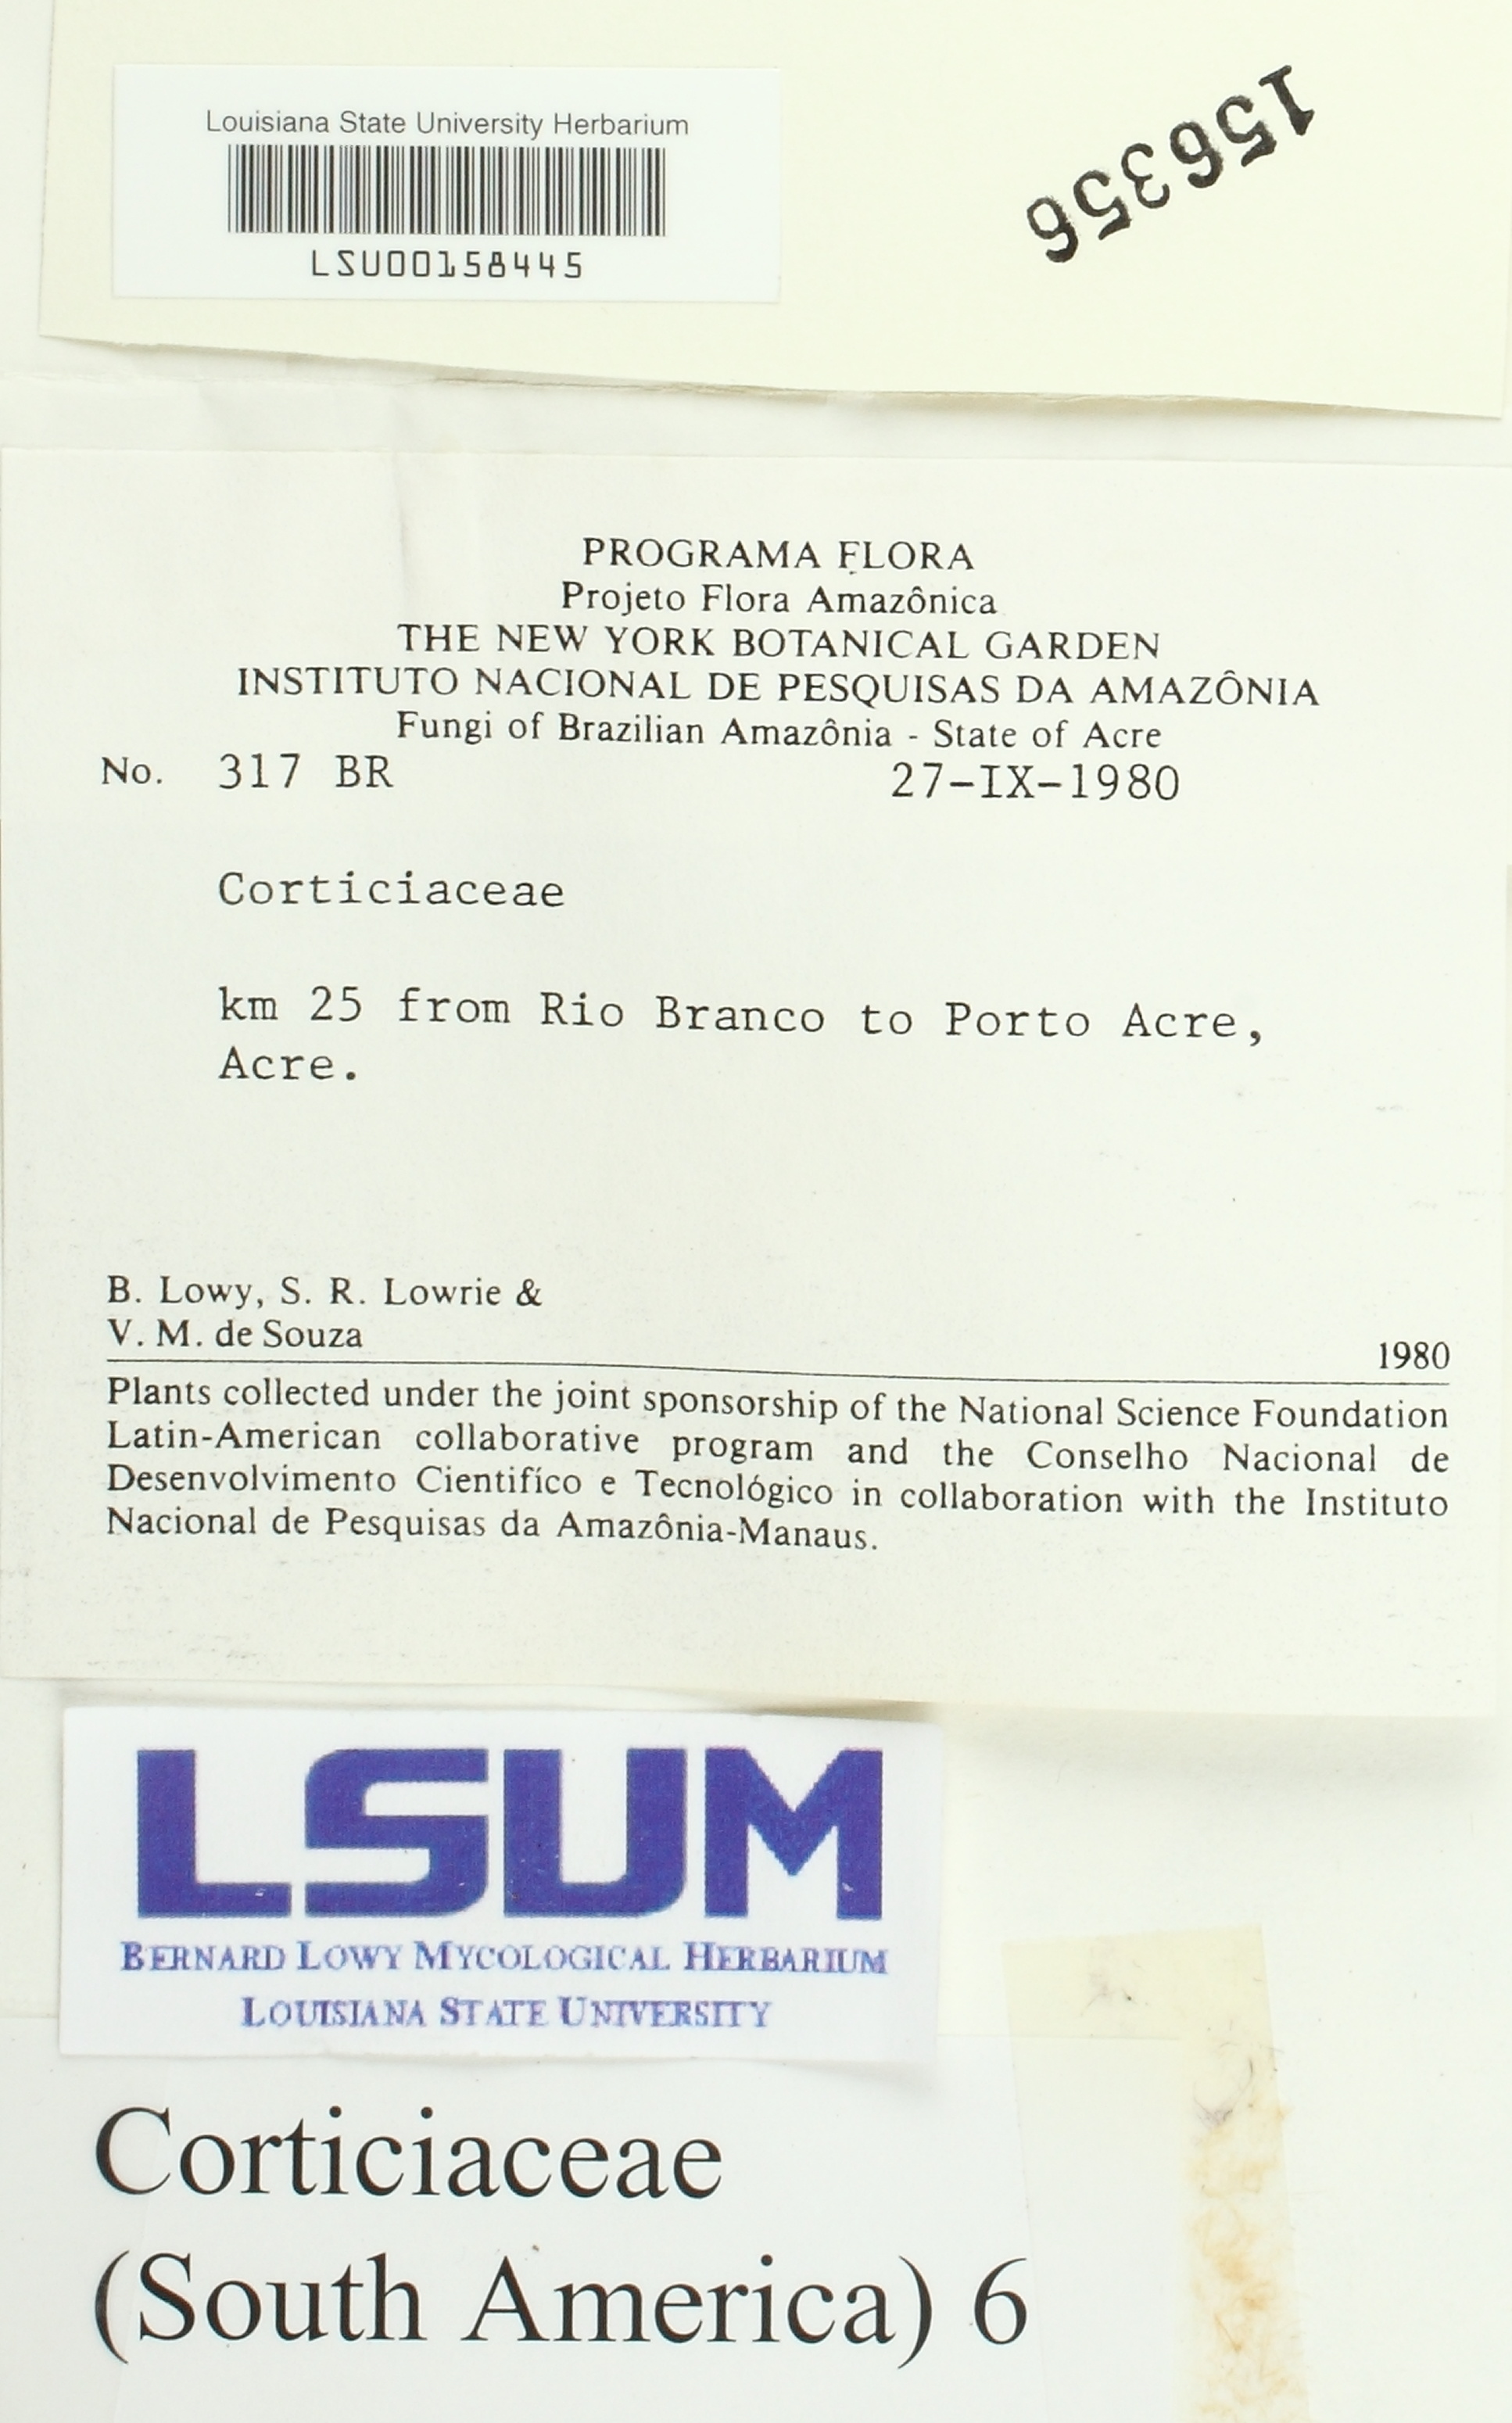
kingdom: Fungi
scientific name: Fungi
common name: Fungi
